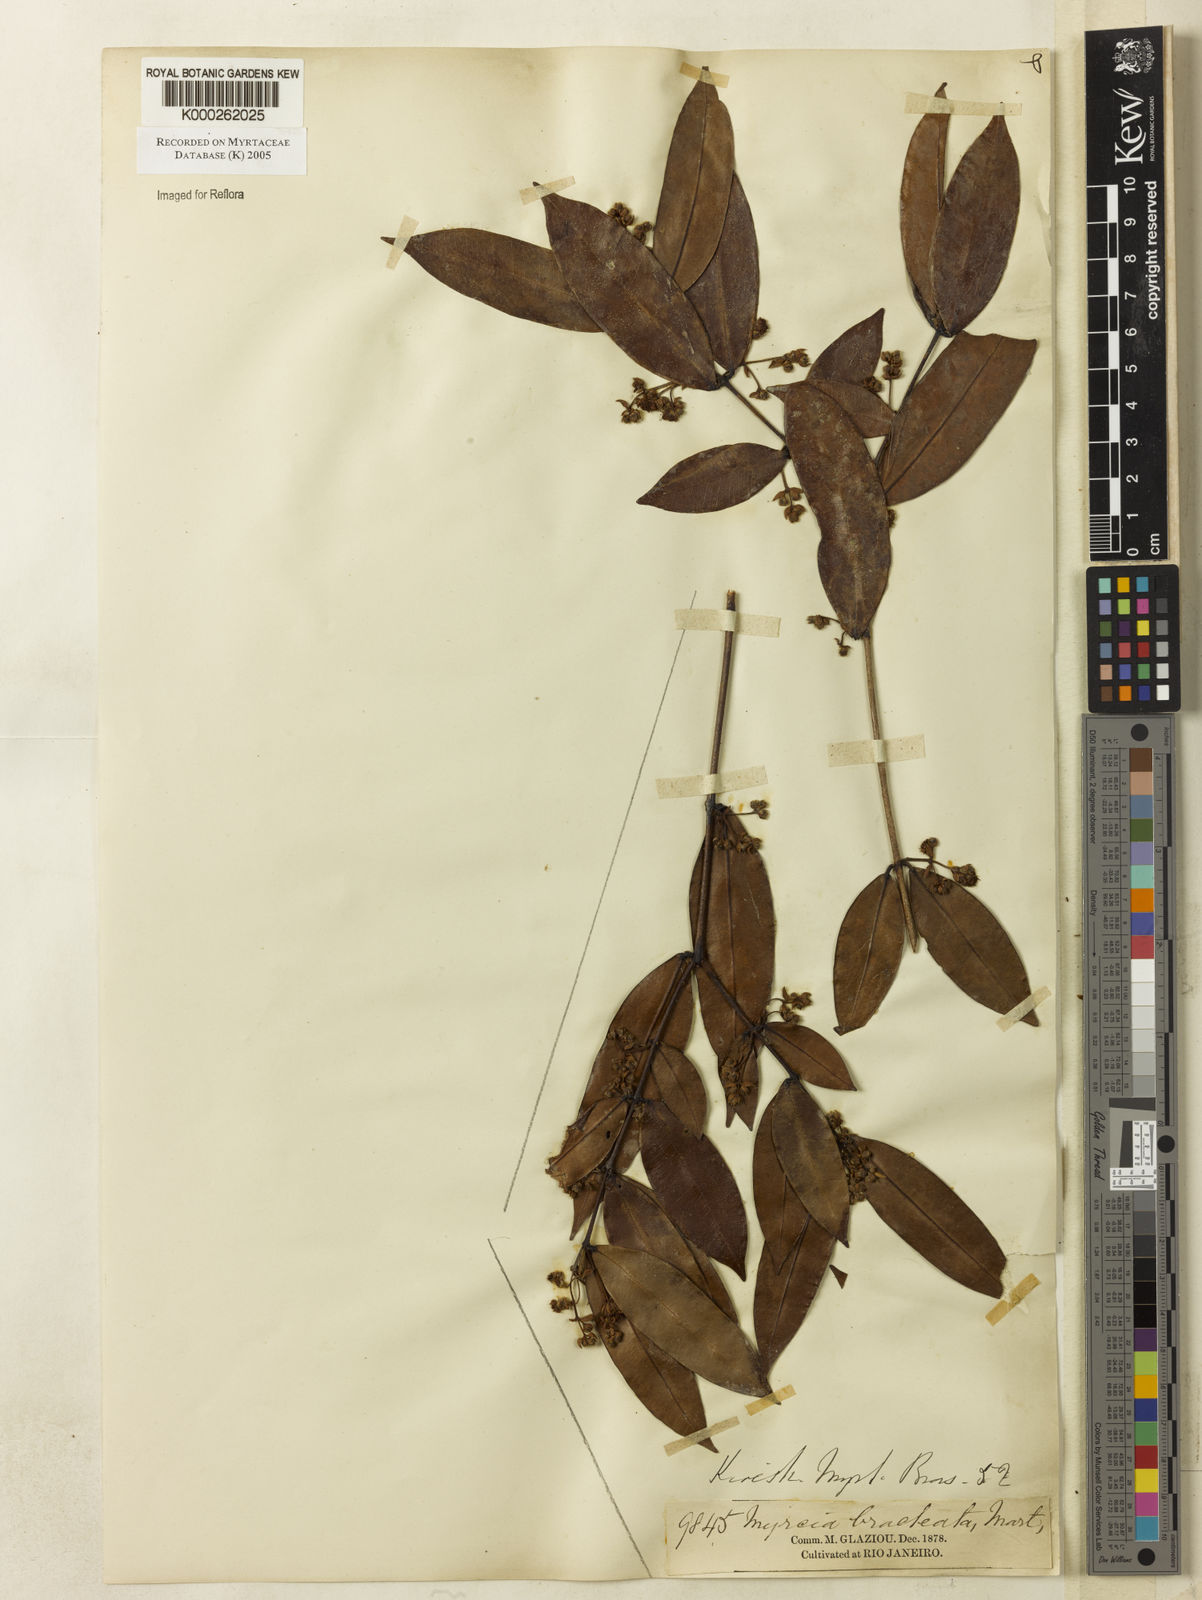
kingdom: Plantae
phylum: Tracheophyta
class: Magnoliopsida
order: Myrtales
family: Myrtaceae
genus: Myrcia
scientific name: Myrcia bracteata
